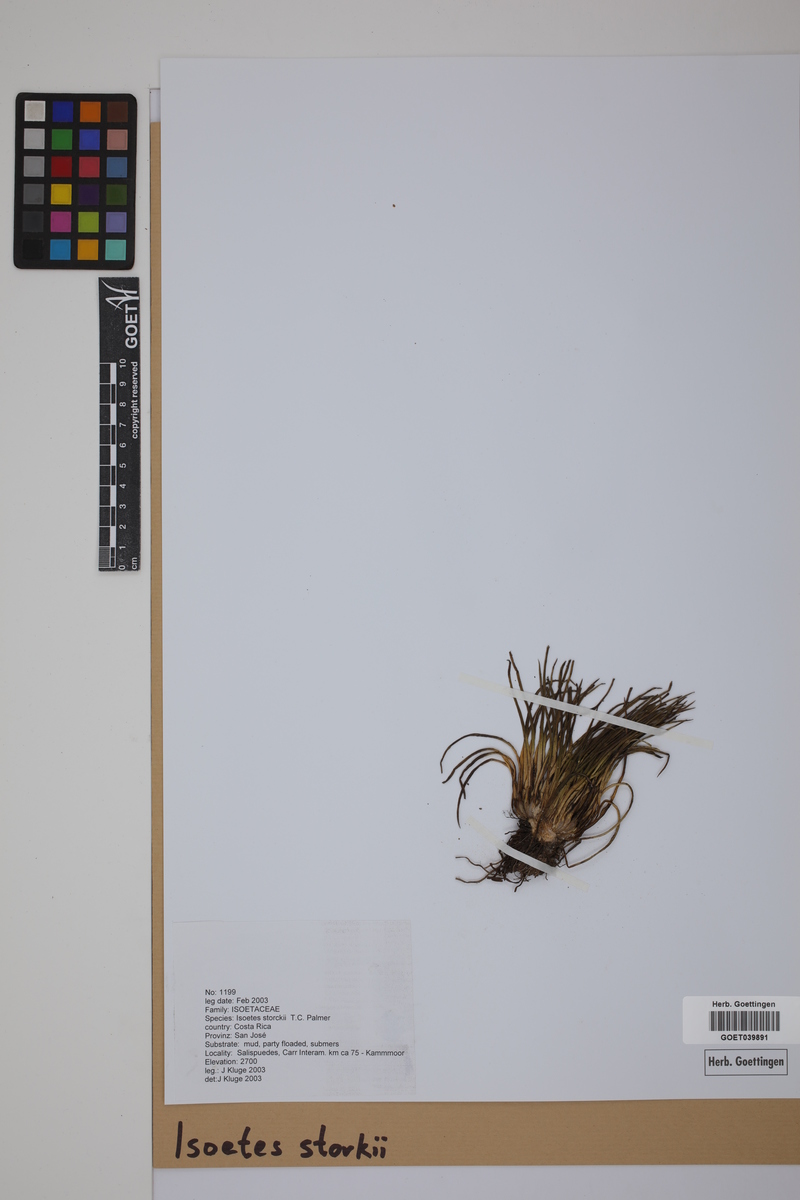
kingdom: Plantae
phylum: Tracheophyta
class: Lycopodiopsida
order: Isoetales
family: Isoetaceae
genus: Isoetes
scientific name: Isoetes storkii
